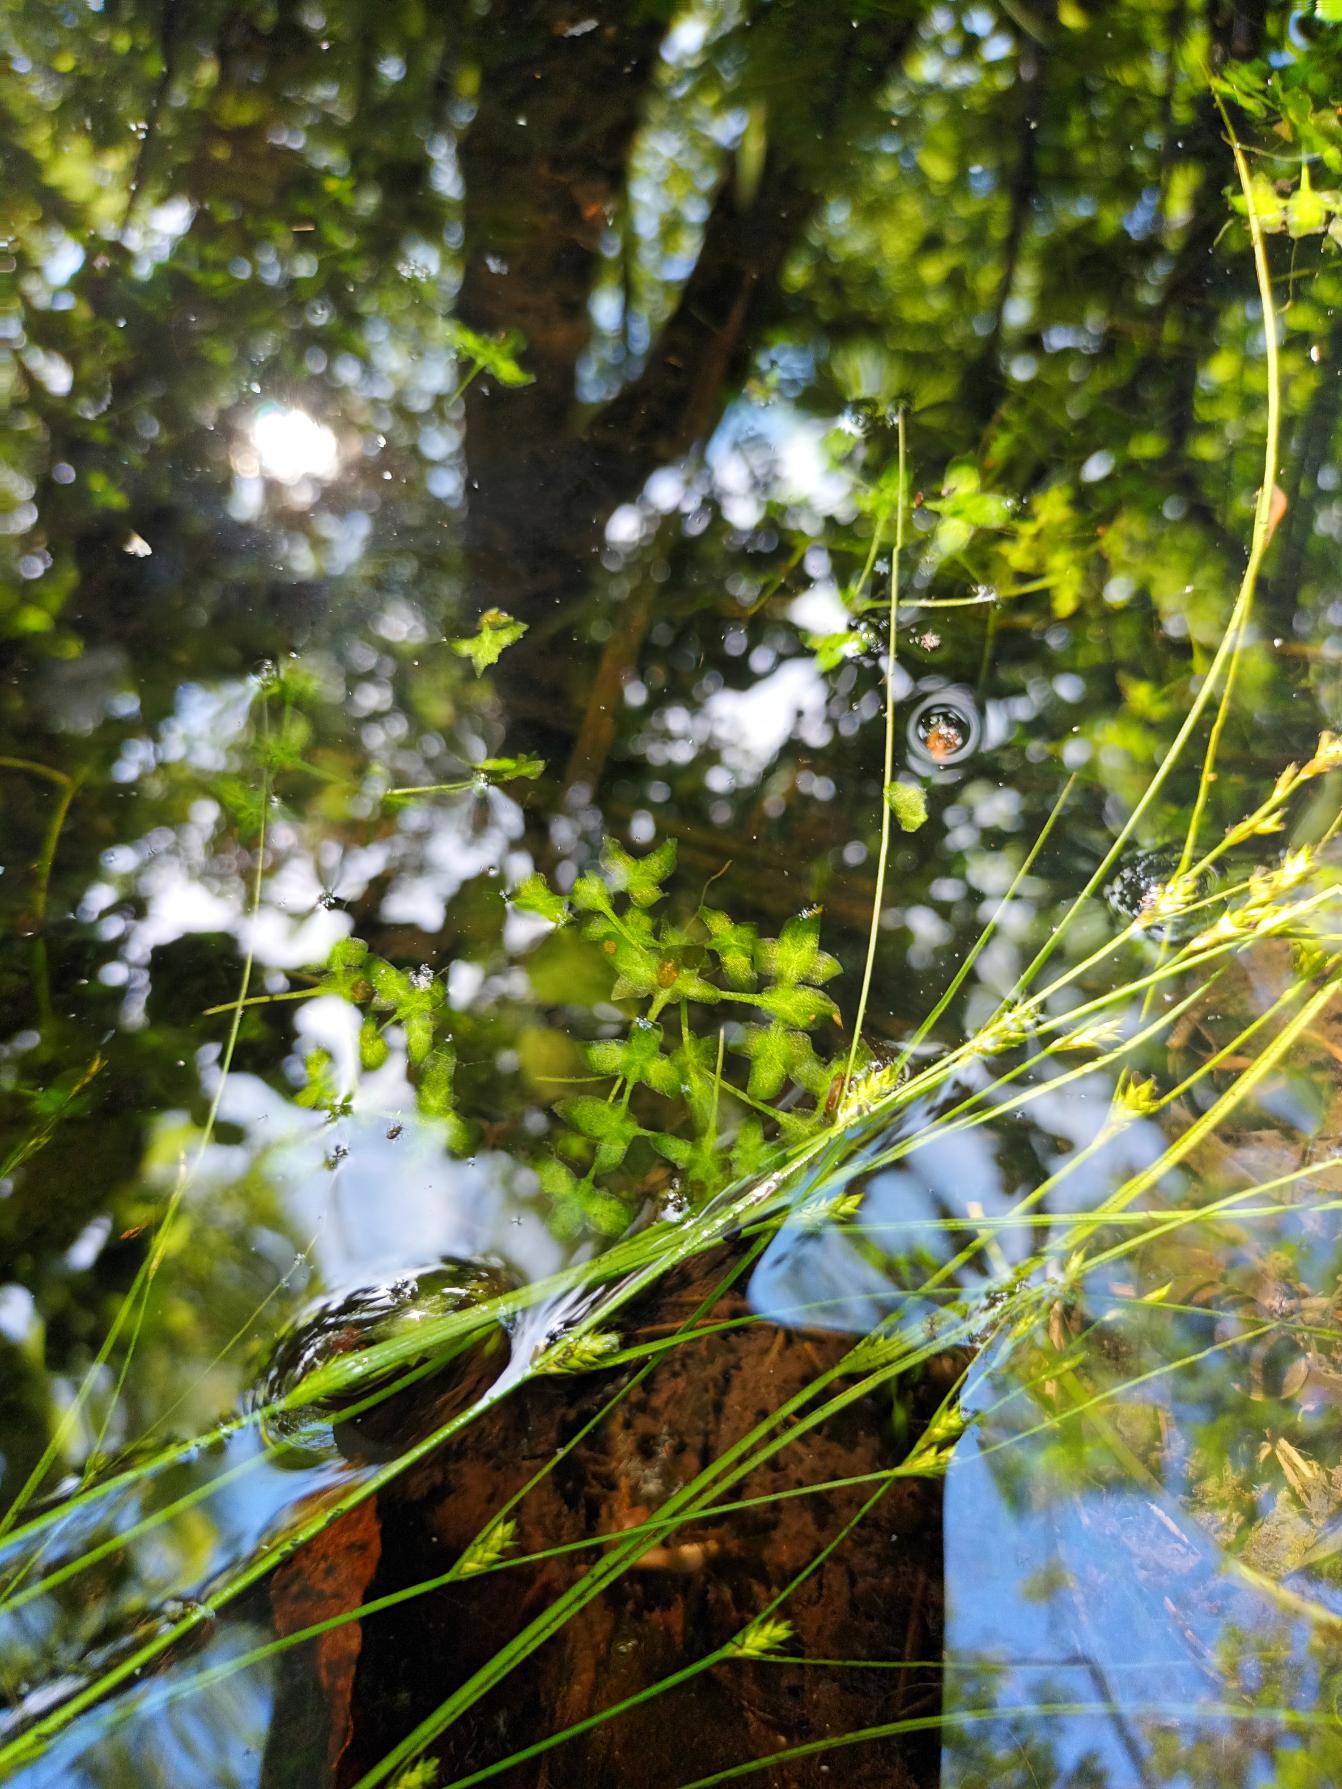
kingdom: Plantae
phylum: Tracheophyta
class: Liliopsida
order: Alismatales
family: Araceae
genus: Lemna
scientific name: Lemna trisulca
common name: Kors-andemad
